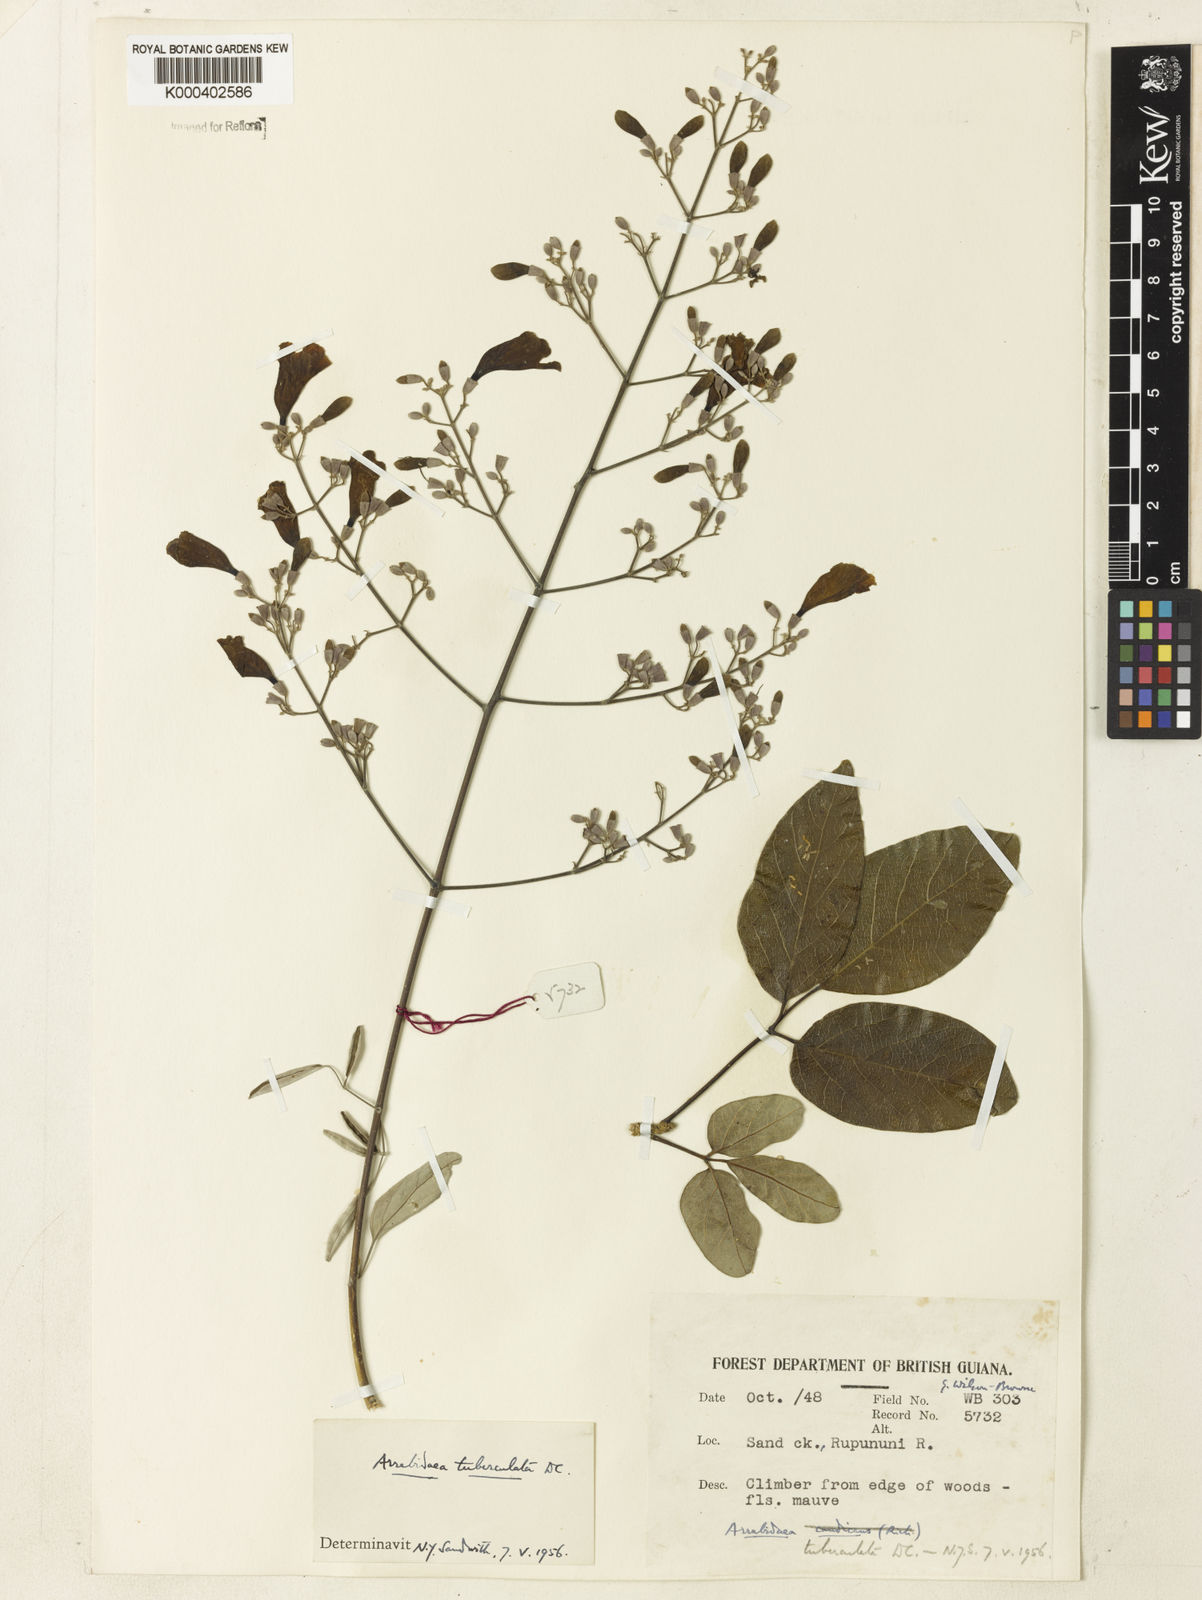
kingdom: Plantae
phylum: Tracheophyta
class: Magnoliopsida
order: Lamiales
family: Bignoniaceae
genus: Fridericia
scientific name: Fridericia tuberculata
